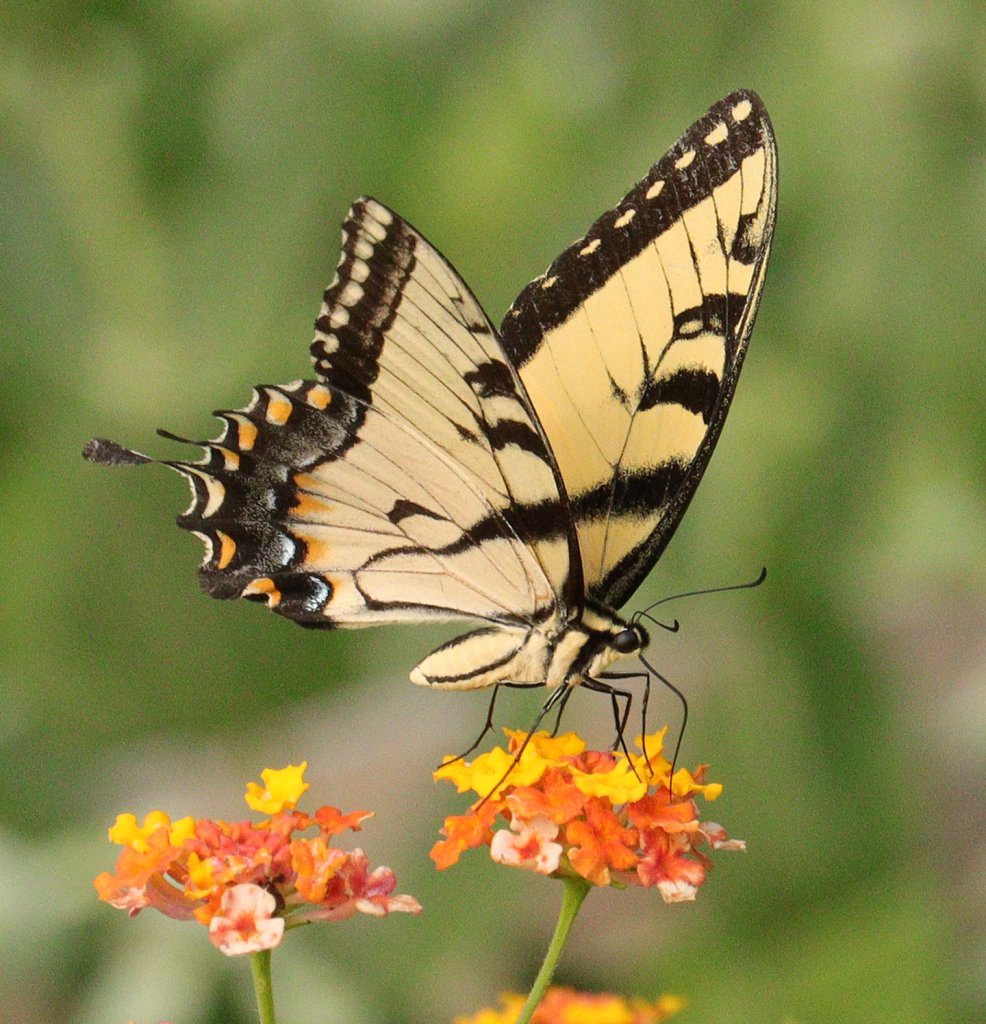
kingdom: Animalia
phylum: Arthropoda
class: Insecta
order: Lepidoptera
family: Papilionidae
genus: Pterourus
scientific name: Pterourus glaucus
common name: Eastern Tiger Swallowtail
